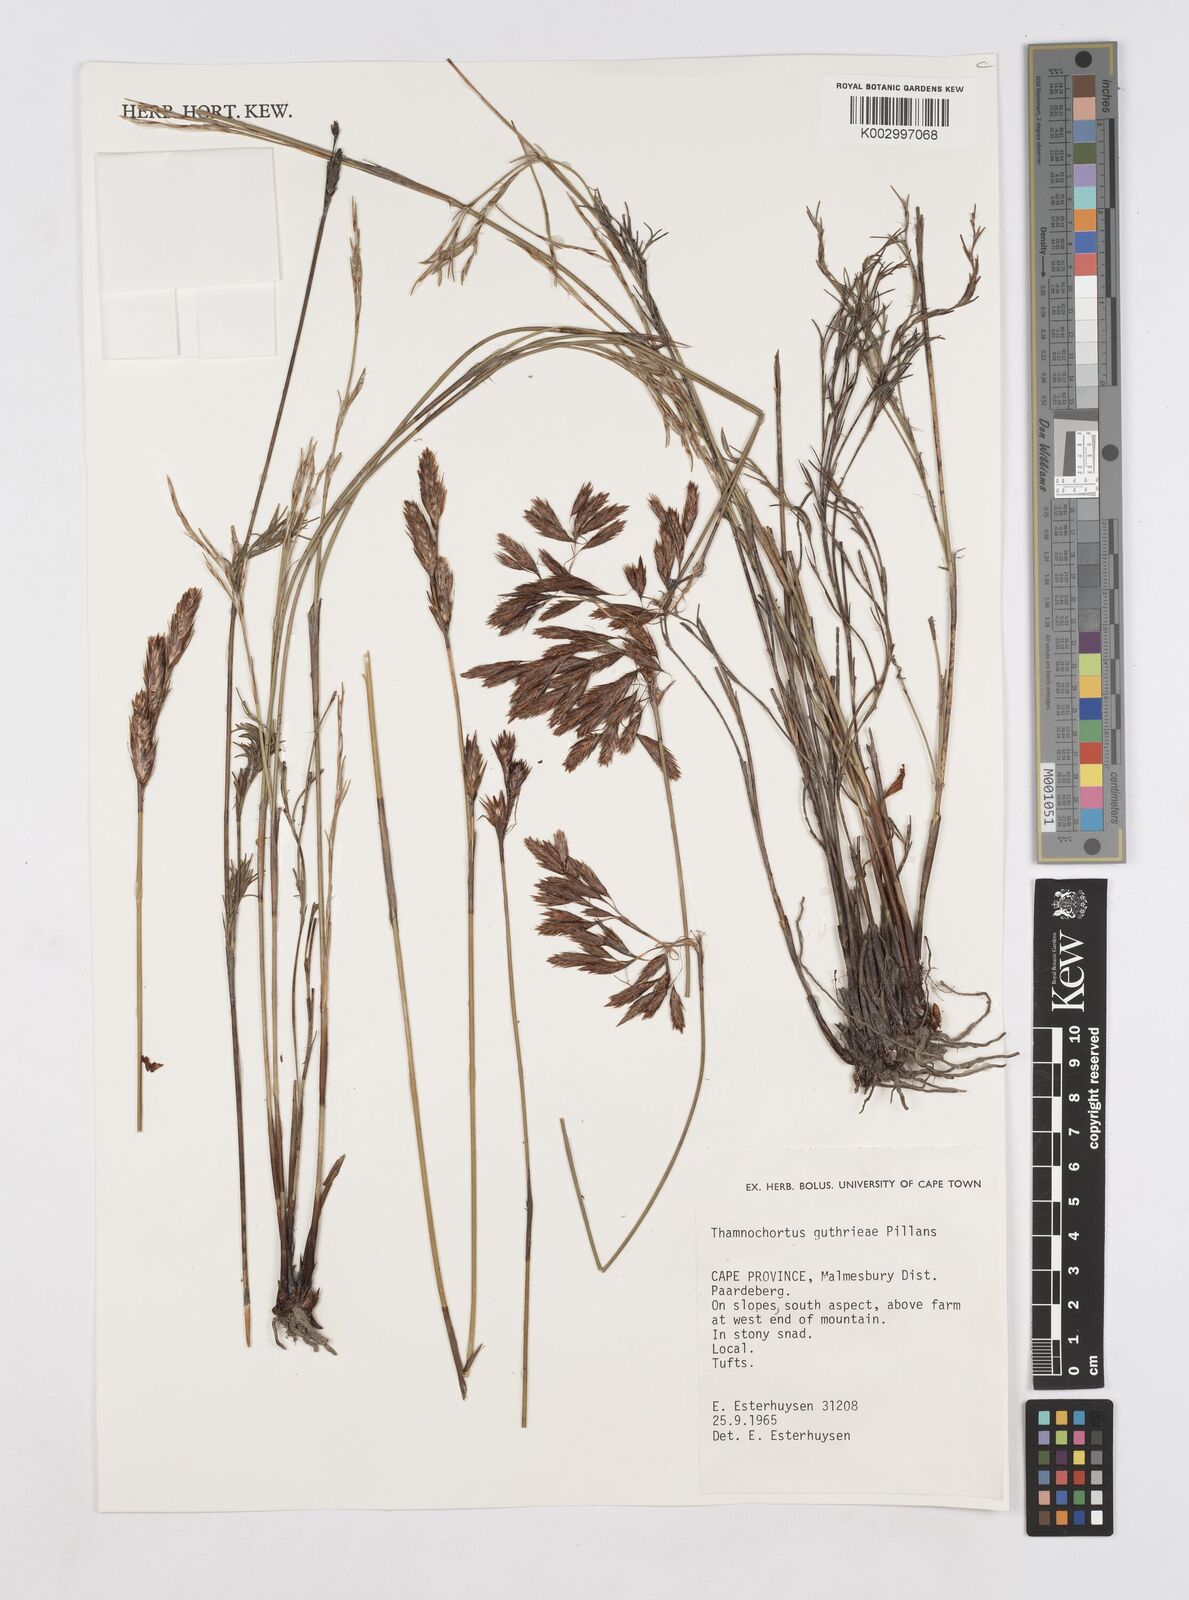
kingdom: Plantae
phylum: Tracheophyta
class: Liliopsida
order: Poales
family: Restionaceae
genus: Thamnochortus
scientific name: Thamnochortus guthrieae
